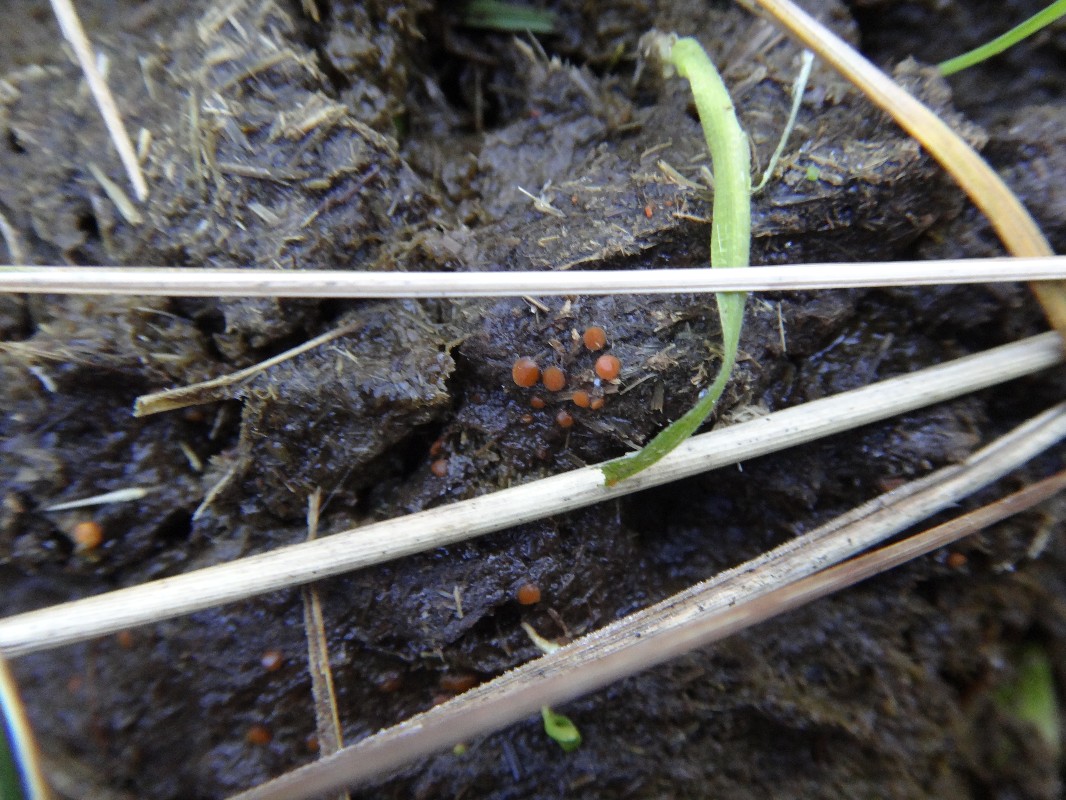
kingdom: Fungi
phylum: Ascomycota
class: Pezizomycetes
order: Pezizales
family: Pyronemataceae
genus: Cheilymenia
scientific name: Cheilymenia granulata
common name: møgbæger
